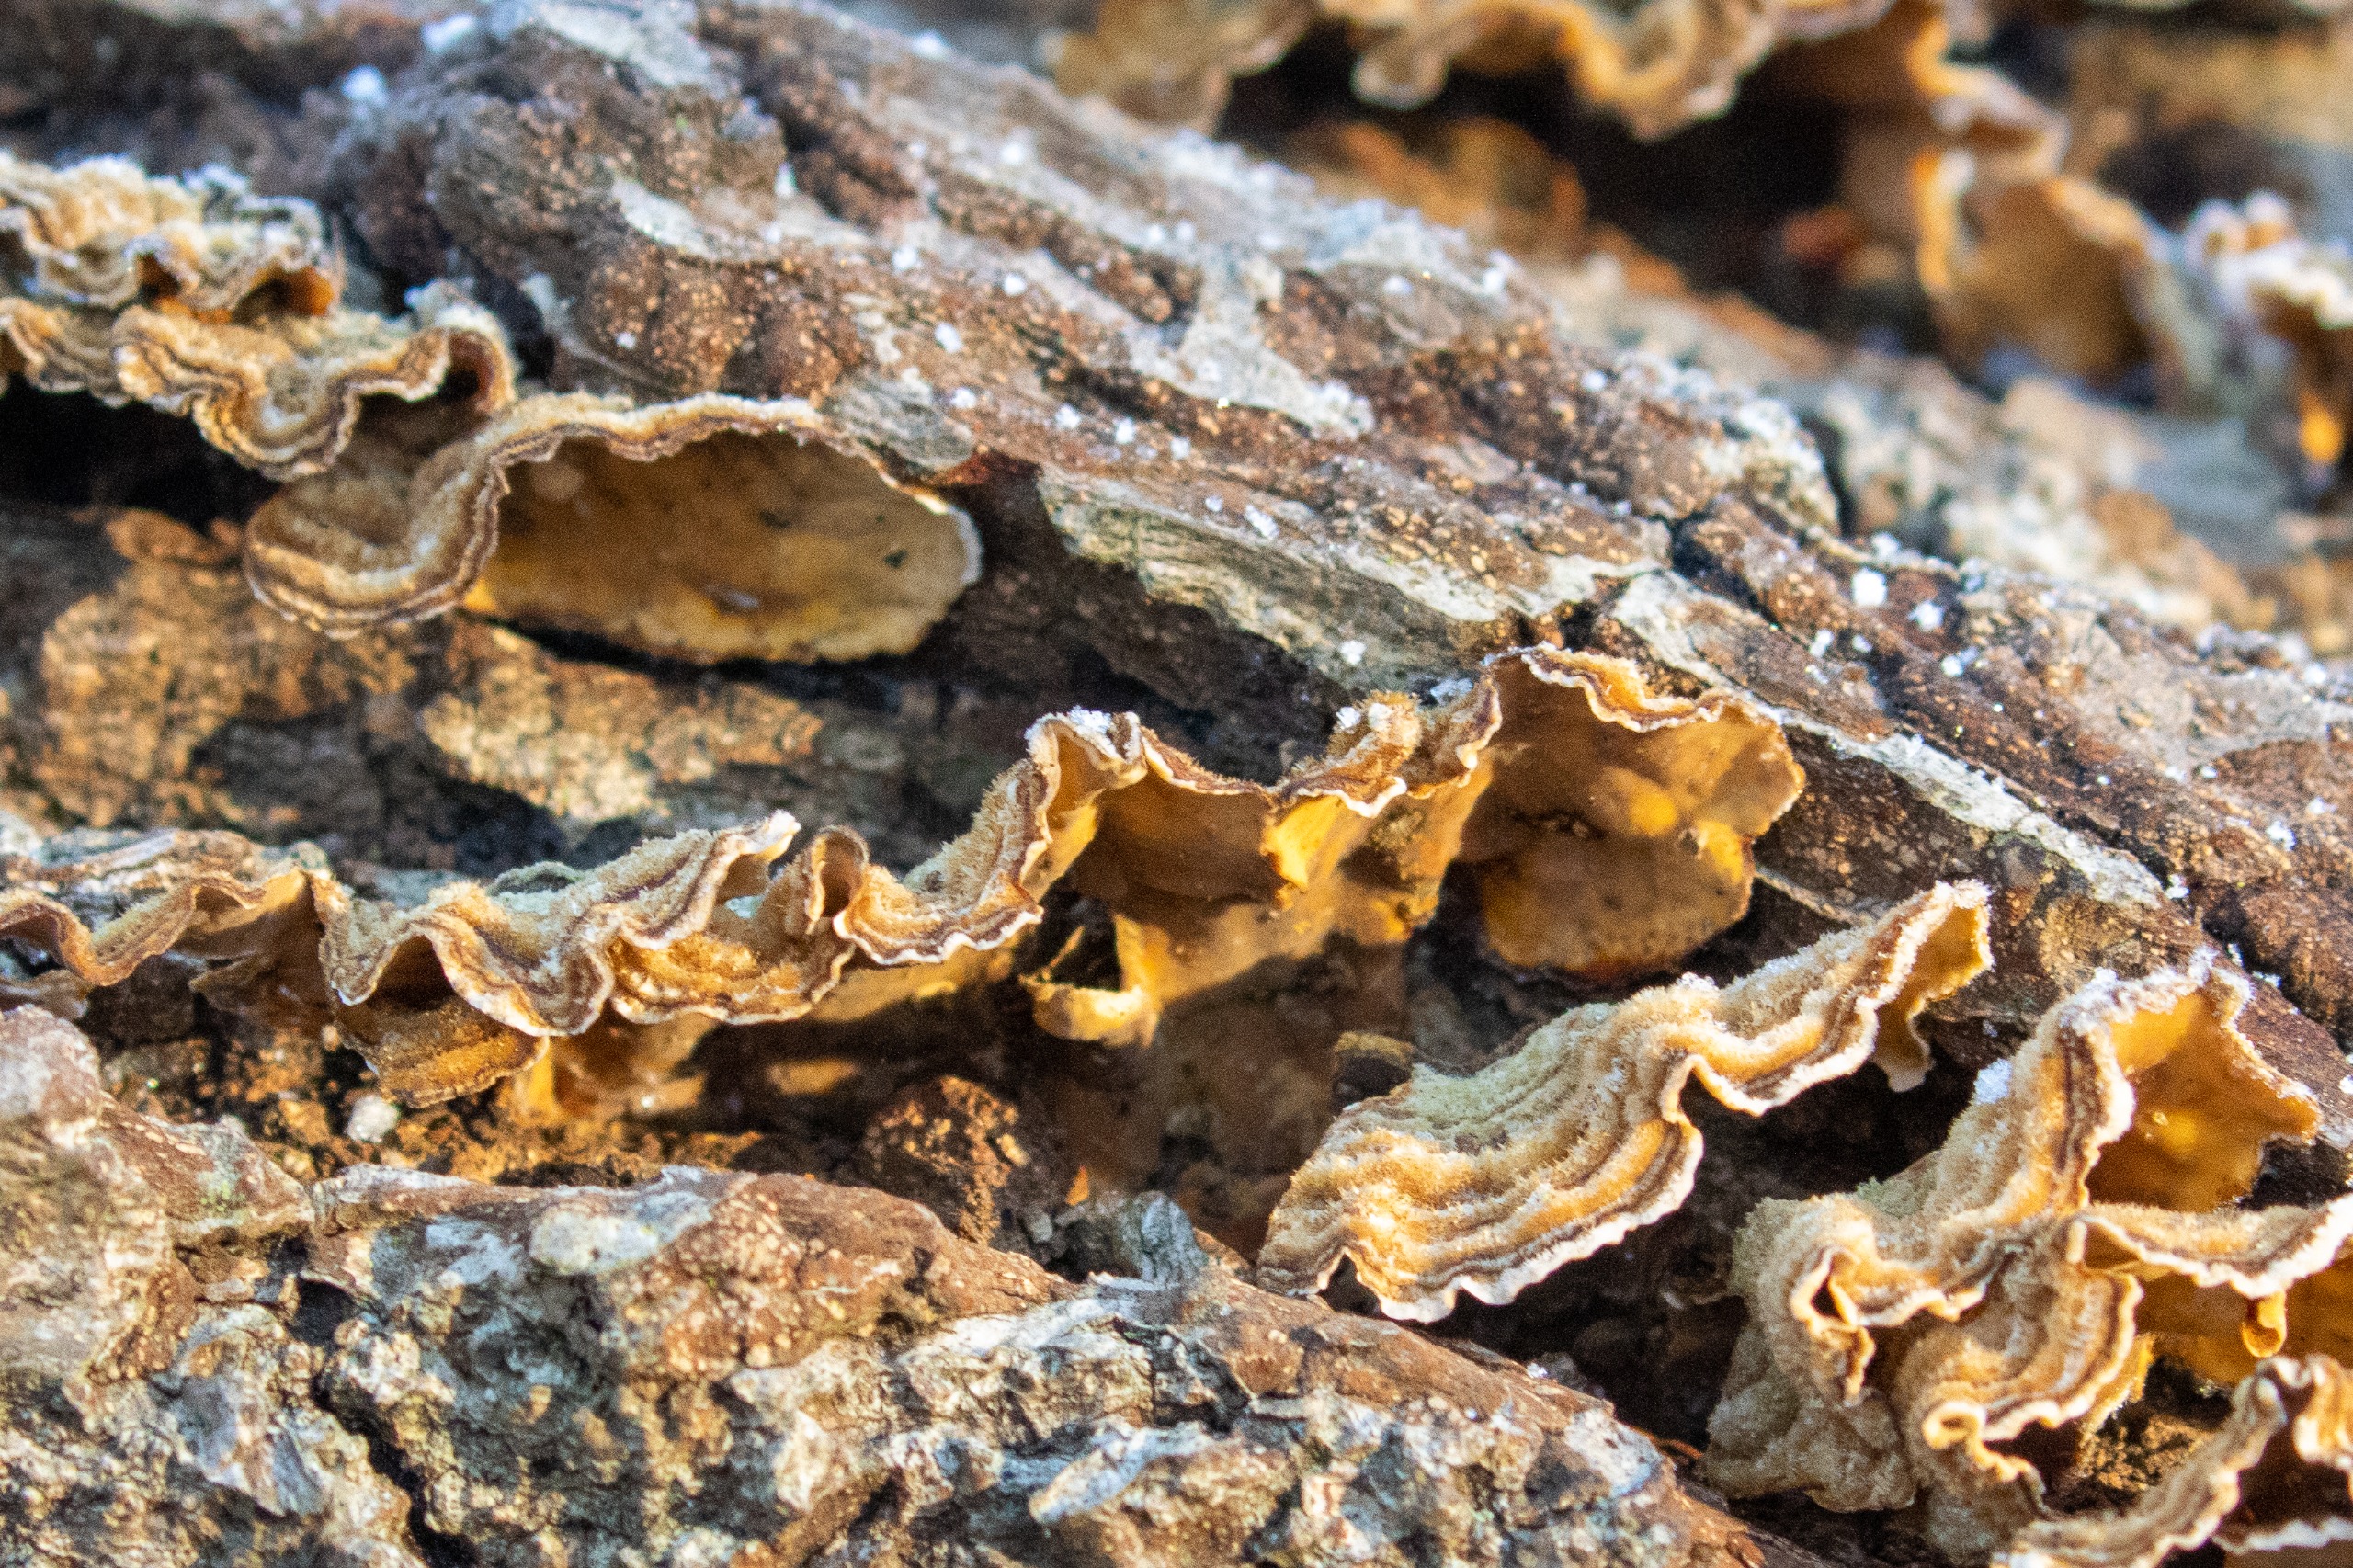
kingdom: Fungi
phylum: Basidiomycota
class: Agaricomycetes
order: Russulales
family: Stereaceae
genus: Stereum
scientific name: Stereum hirsutum
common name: Håret lædersvamp
